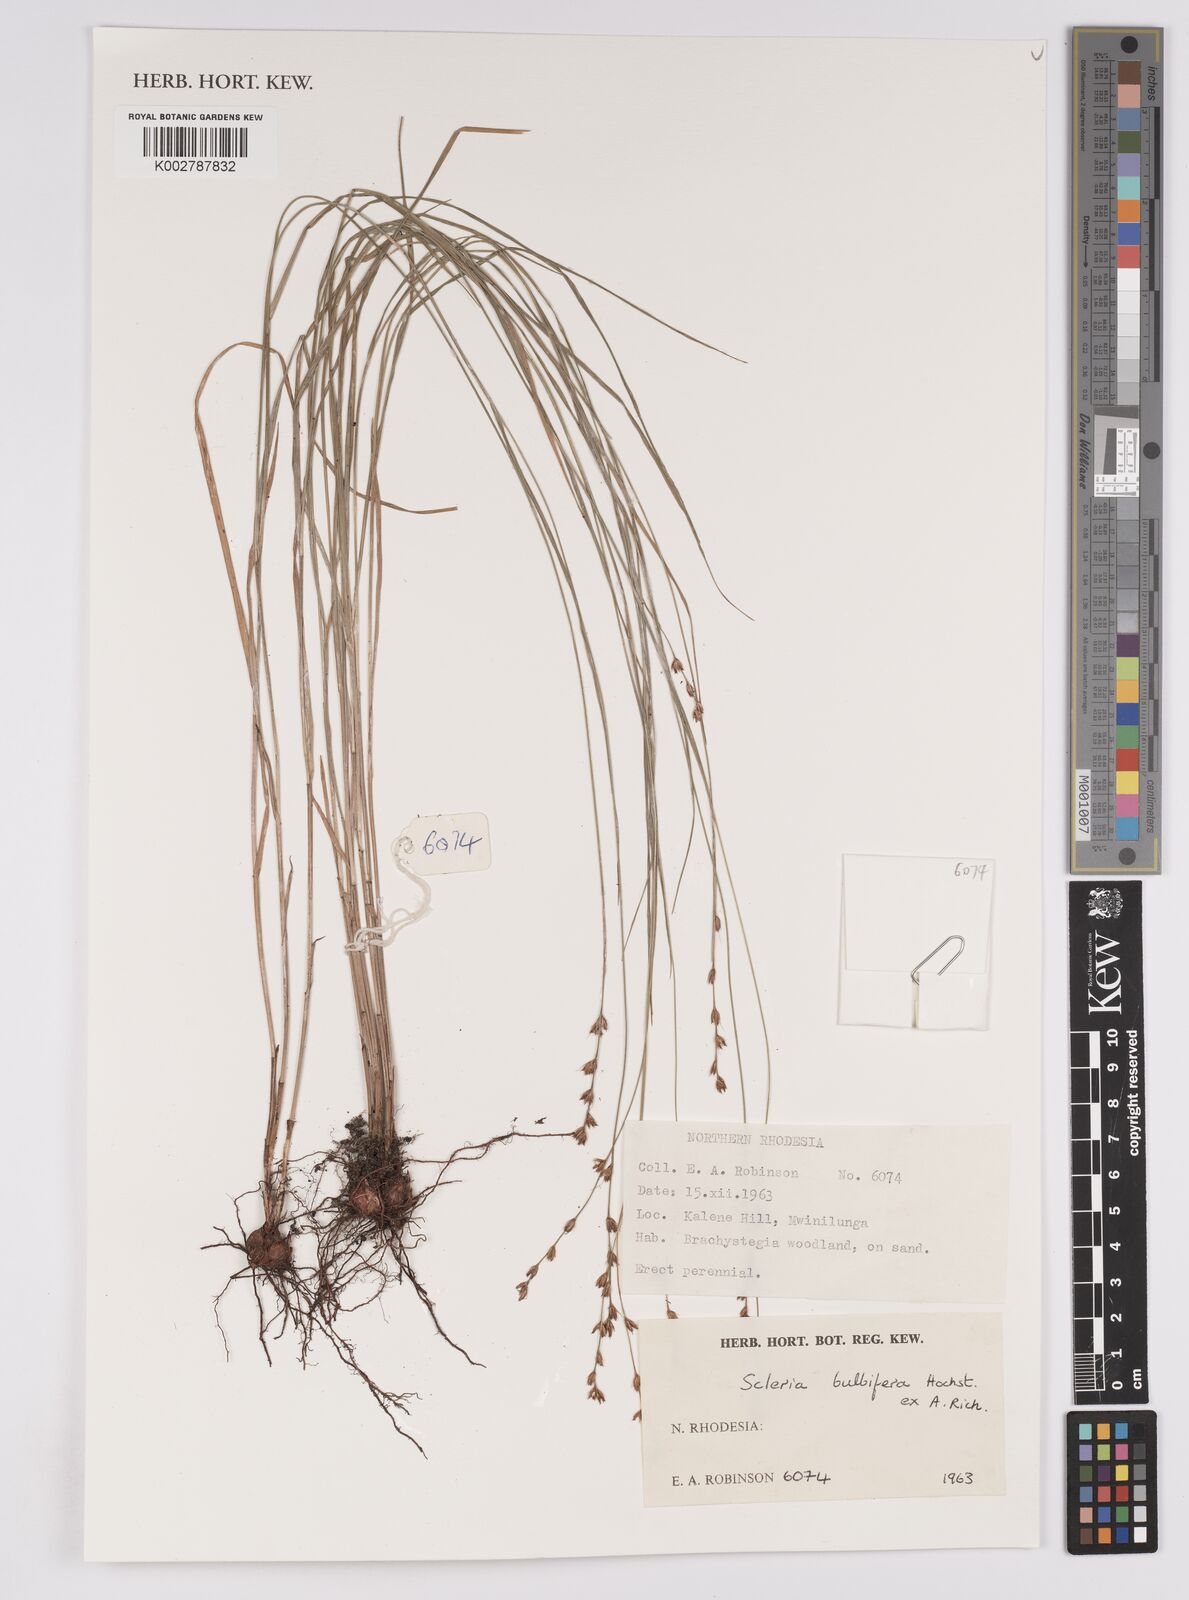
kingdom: Plantae
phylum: Tracheophyta
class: Liliopsida
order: Poales
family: Cyperaceae
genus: Scleria
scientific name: Scleria bulbifera
